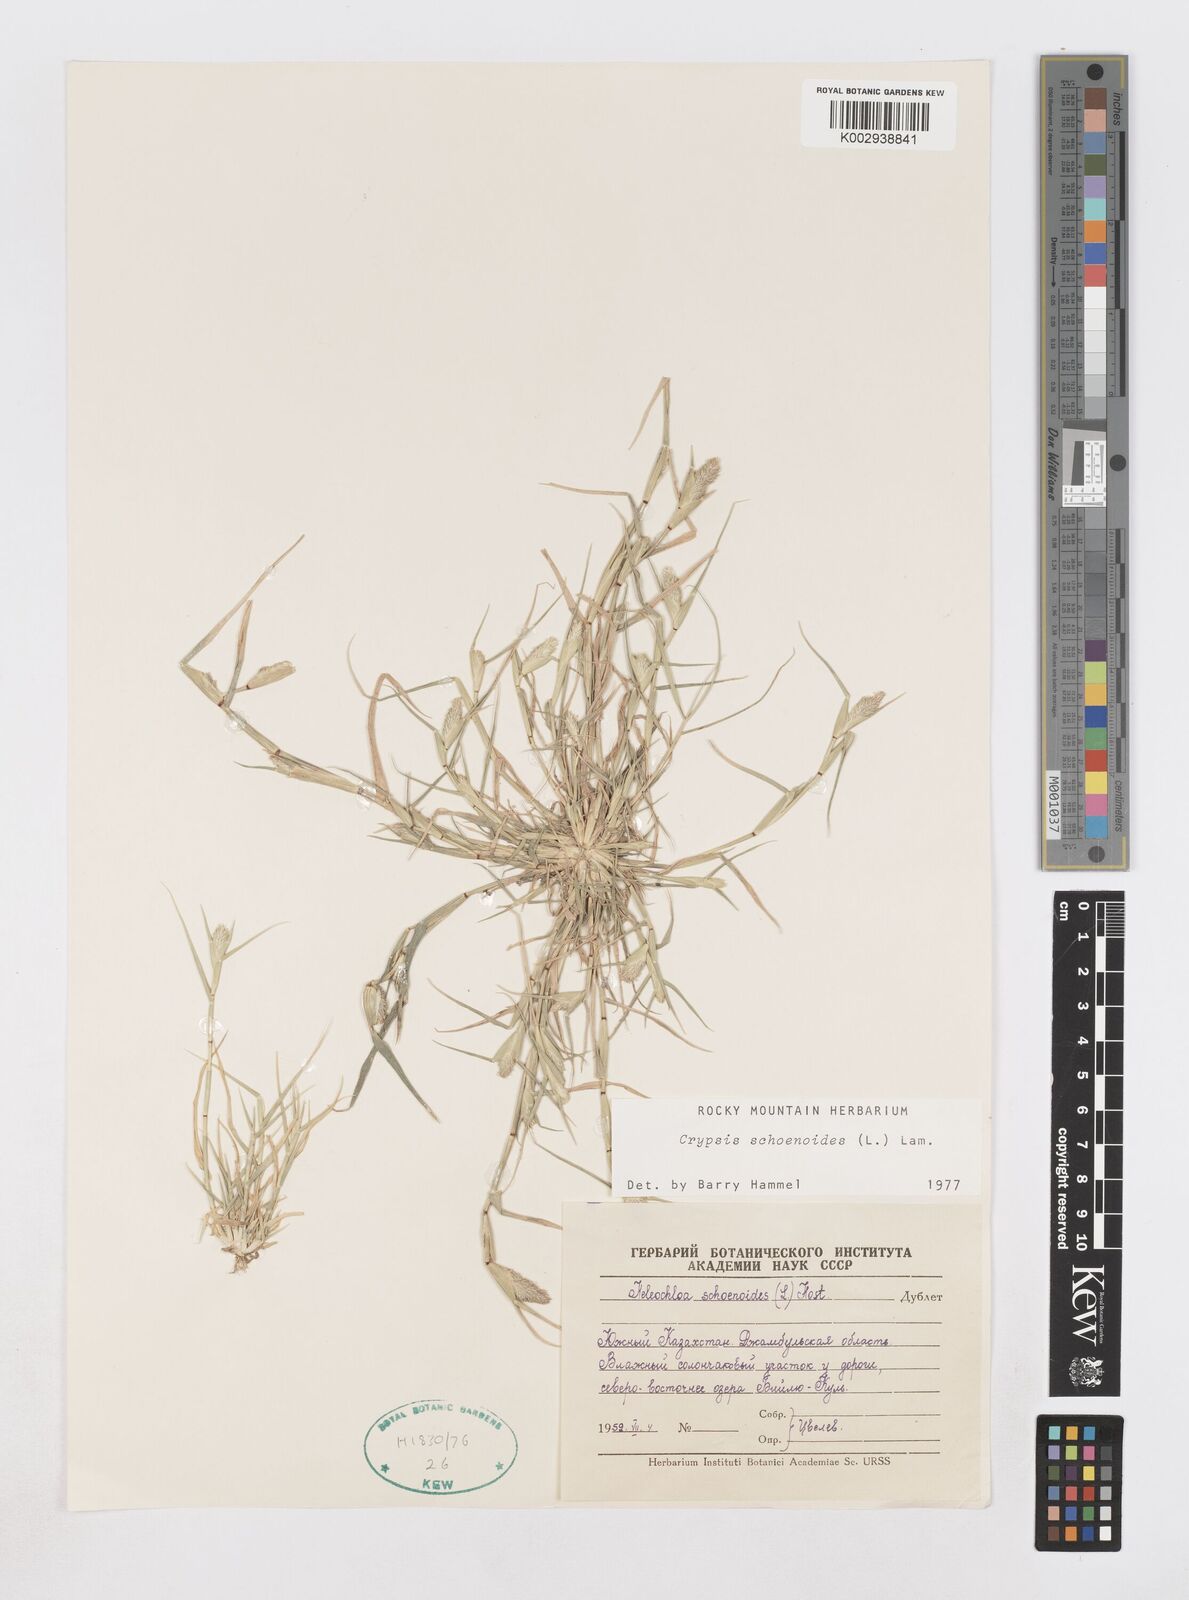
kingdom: Plantae
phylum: Tracheophyta
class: Liliopsida
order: Poales
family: Poaceae
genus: Sporobolus
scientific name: Sporobolus schoenoides
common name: Rush-like timothy
